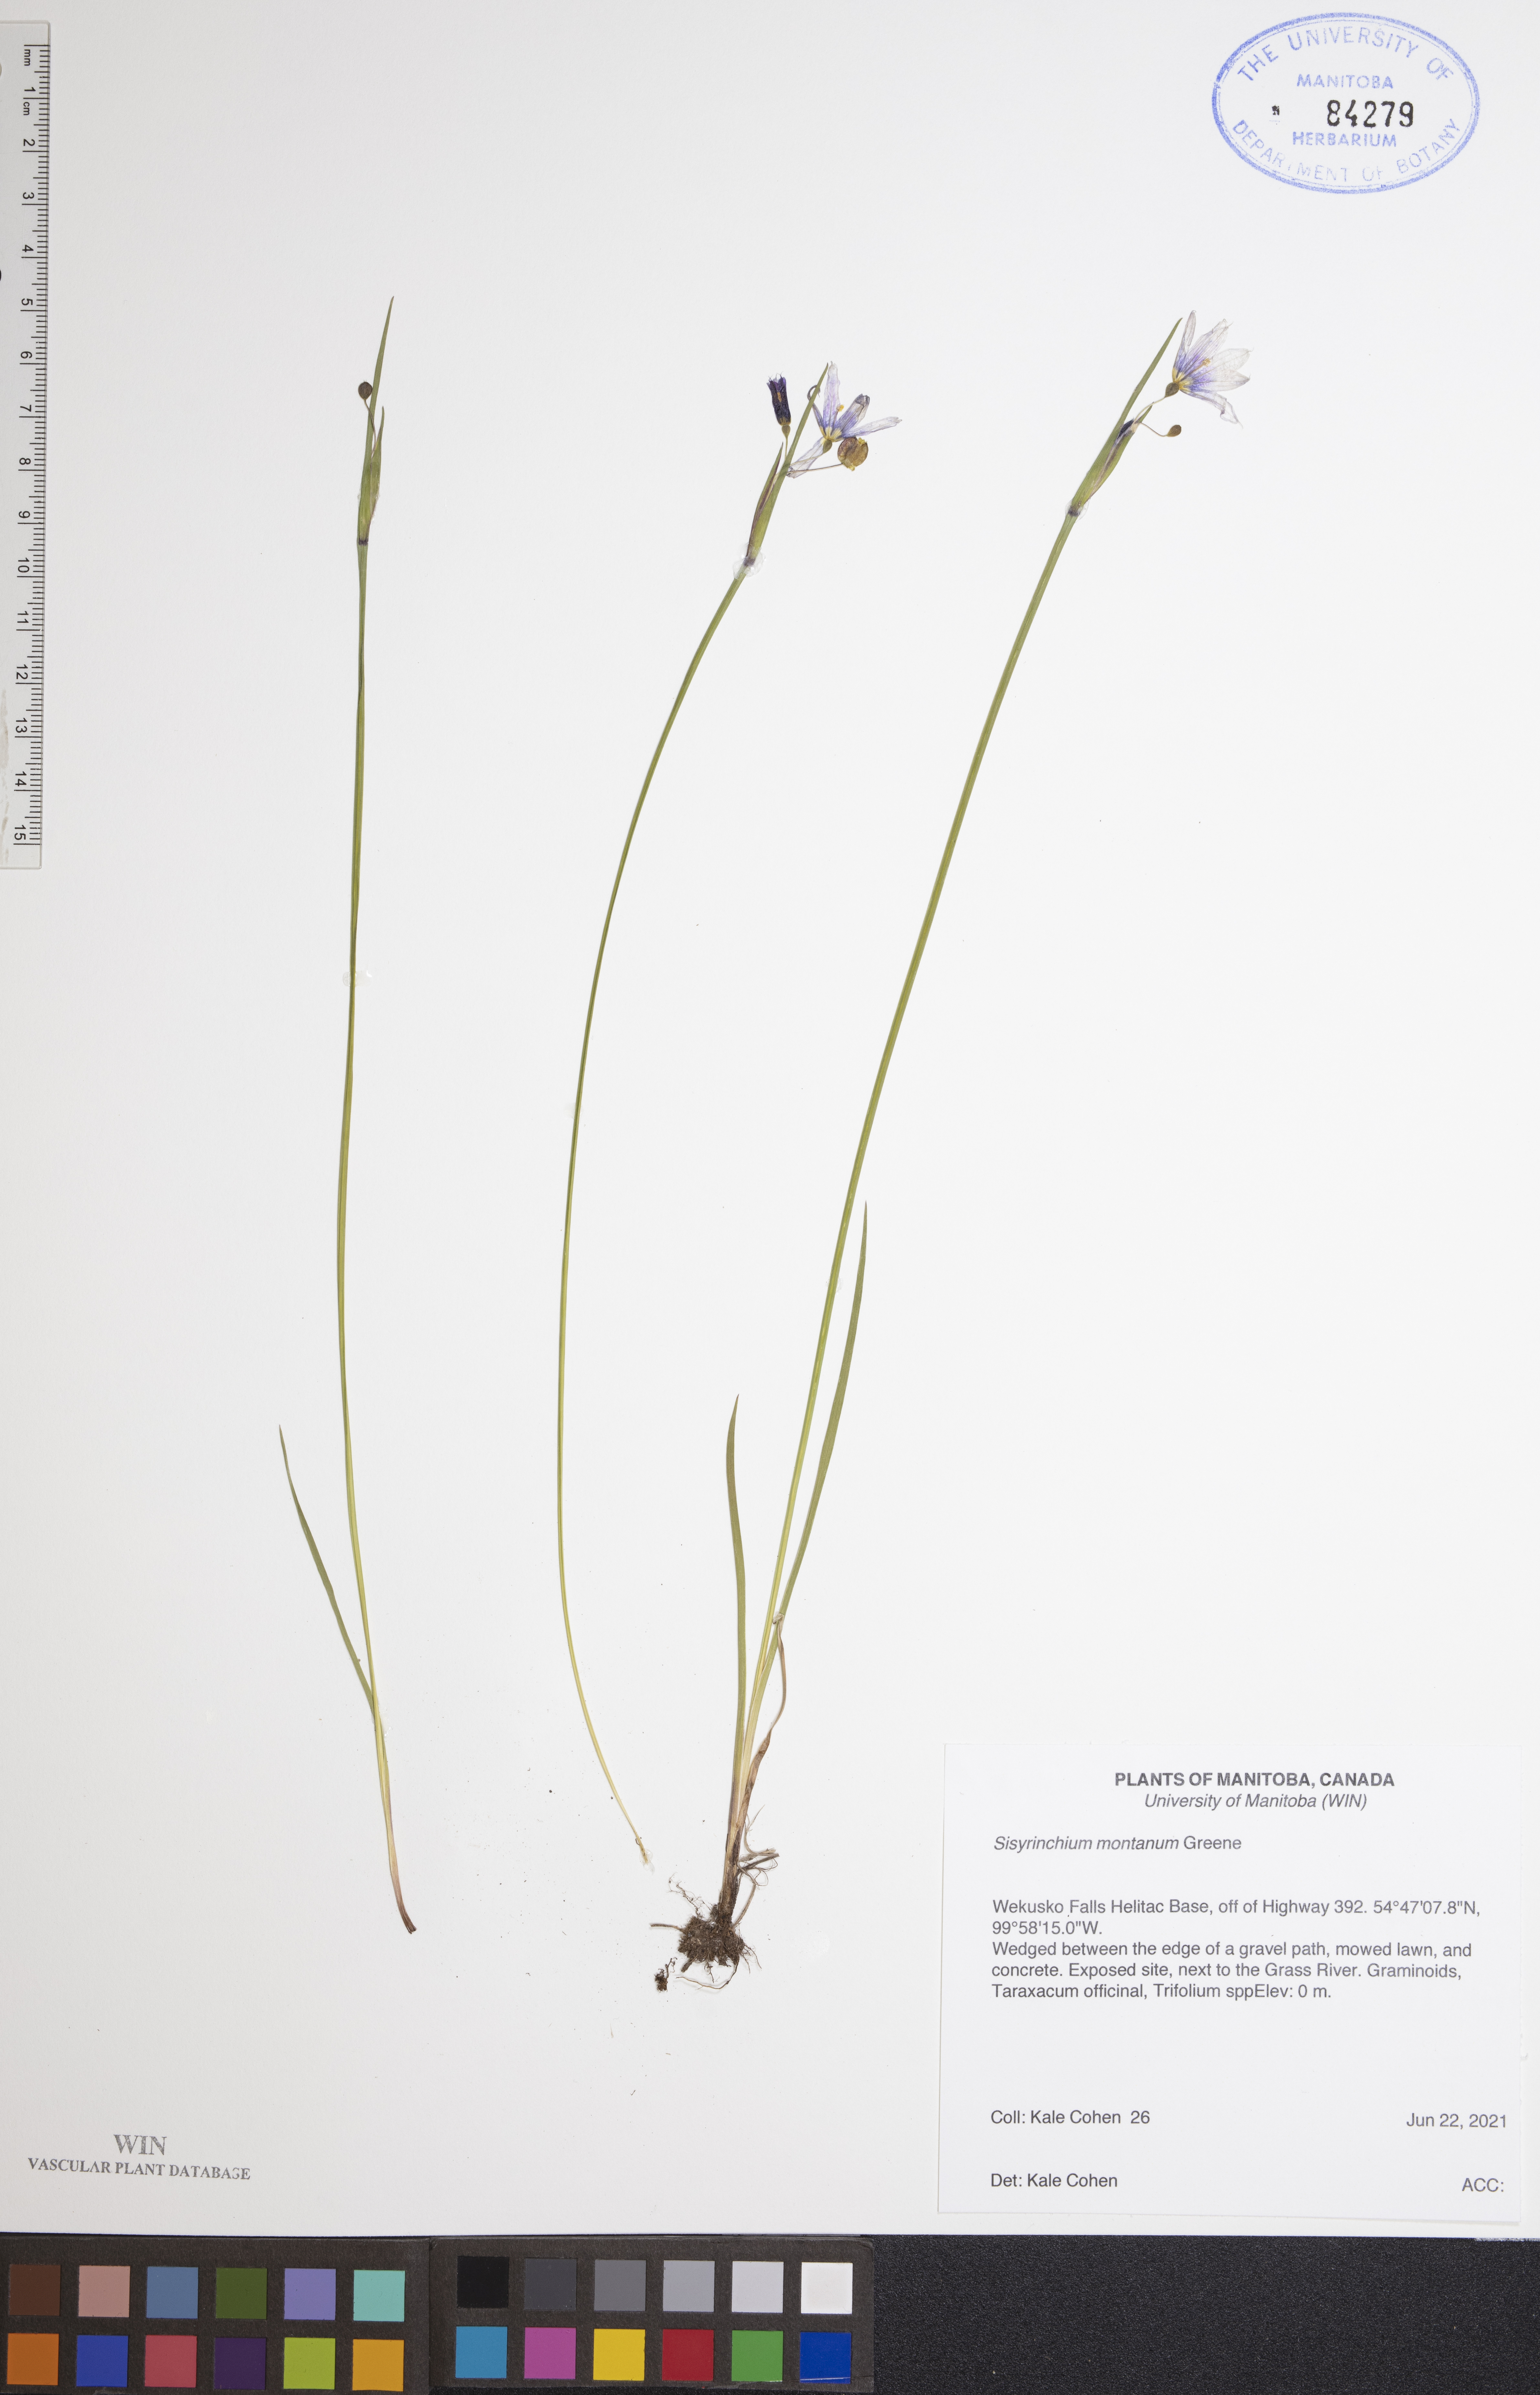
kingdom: Plantae
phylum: Tracheophyta
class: Liliopsida
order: Asparagales
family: Iridaceae
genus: Sisyrinchium
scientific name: Sisyrinchium montanum
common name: American blue-eyed-grass
